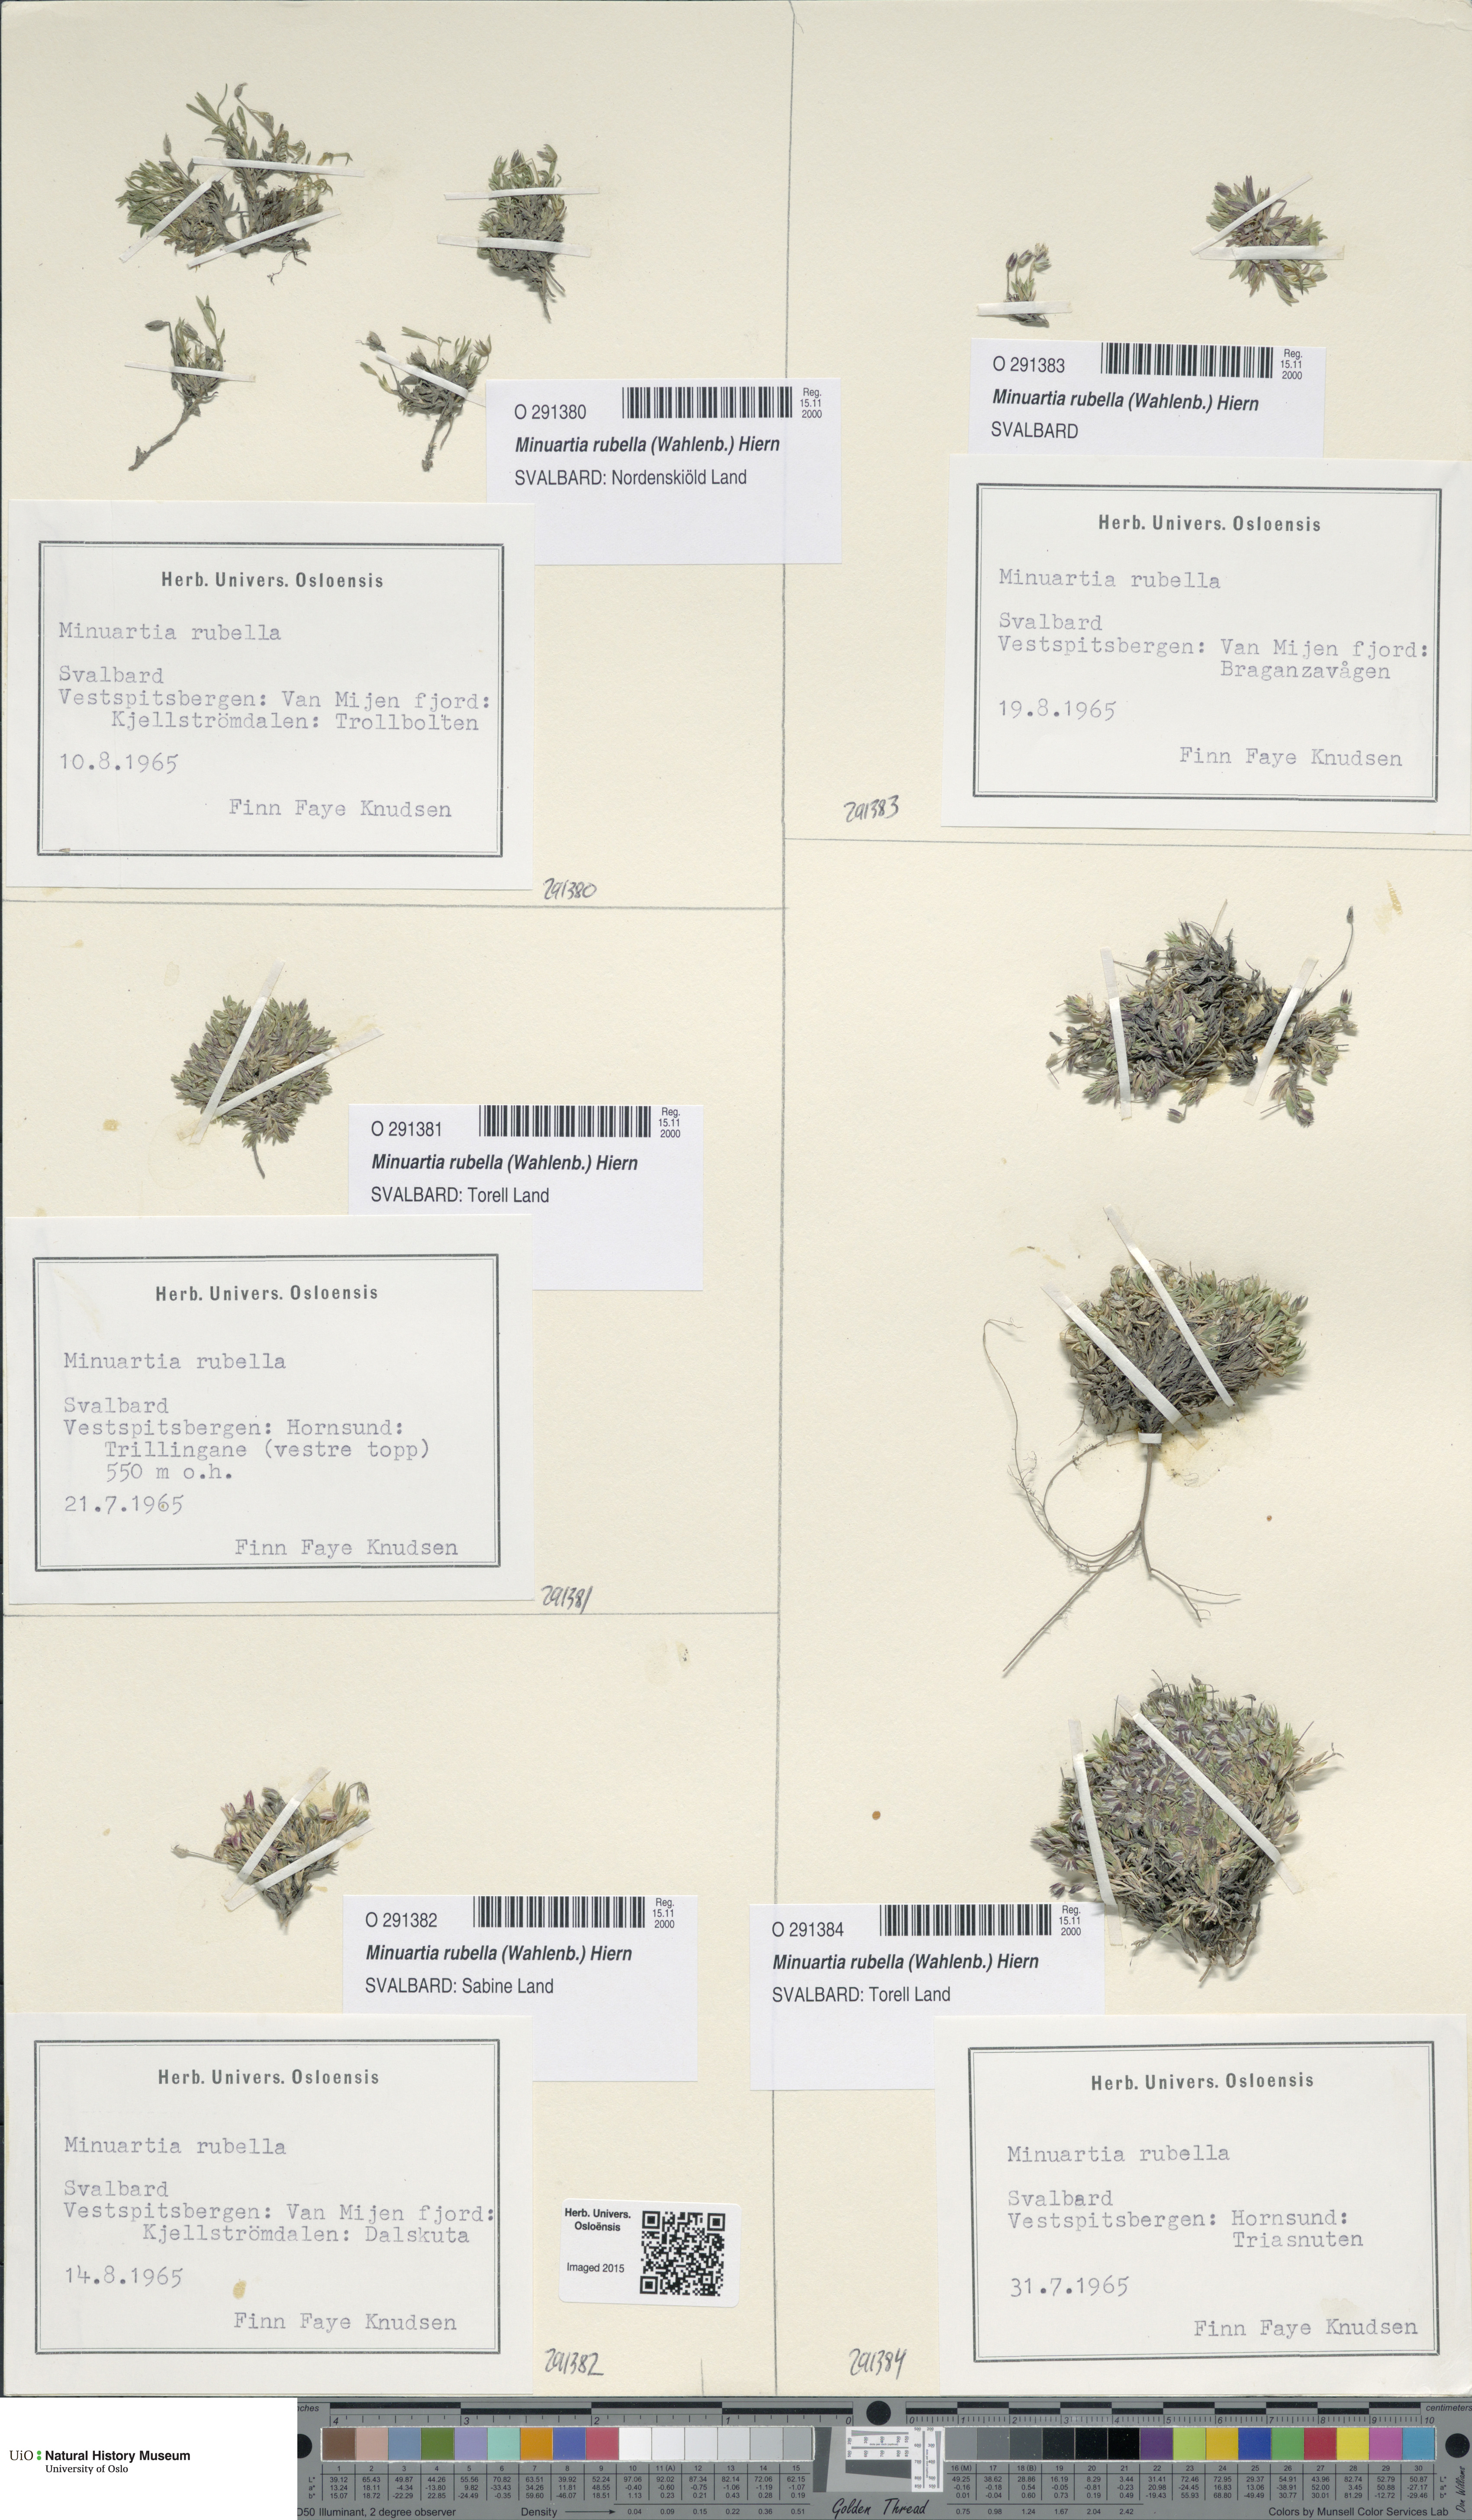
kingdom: Plantae
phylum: Tracheophyta
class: Magnoliopsida
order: Caryophyllales
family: Caryophyllaceae
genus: Sabulina
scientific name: Sabulina rubella
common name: Beautiful sandwort
